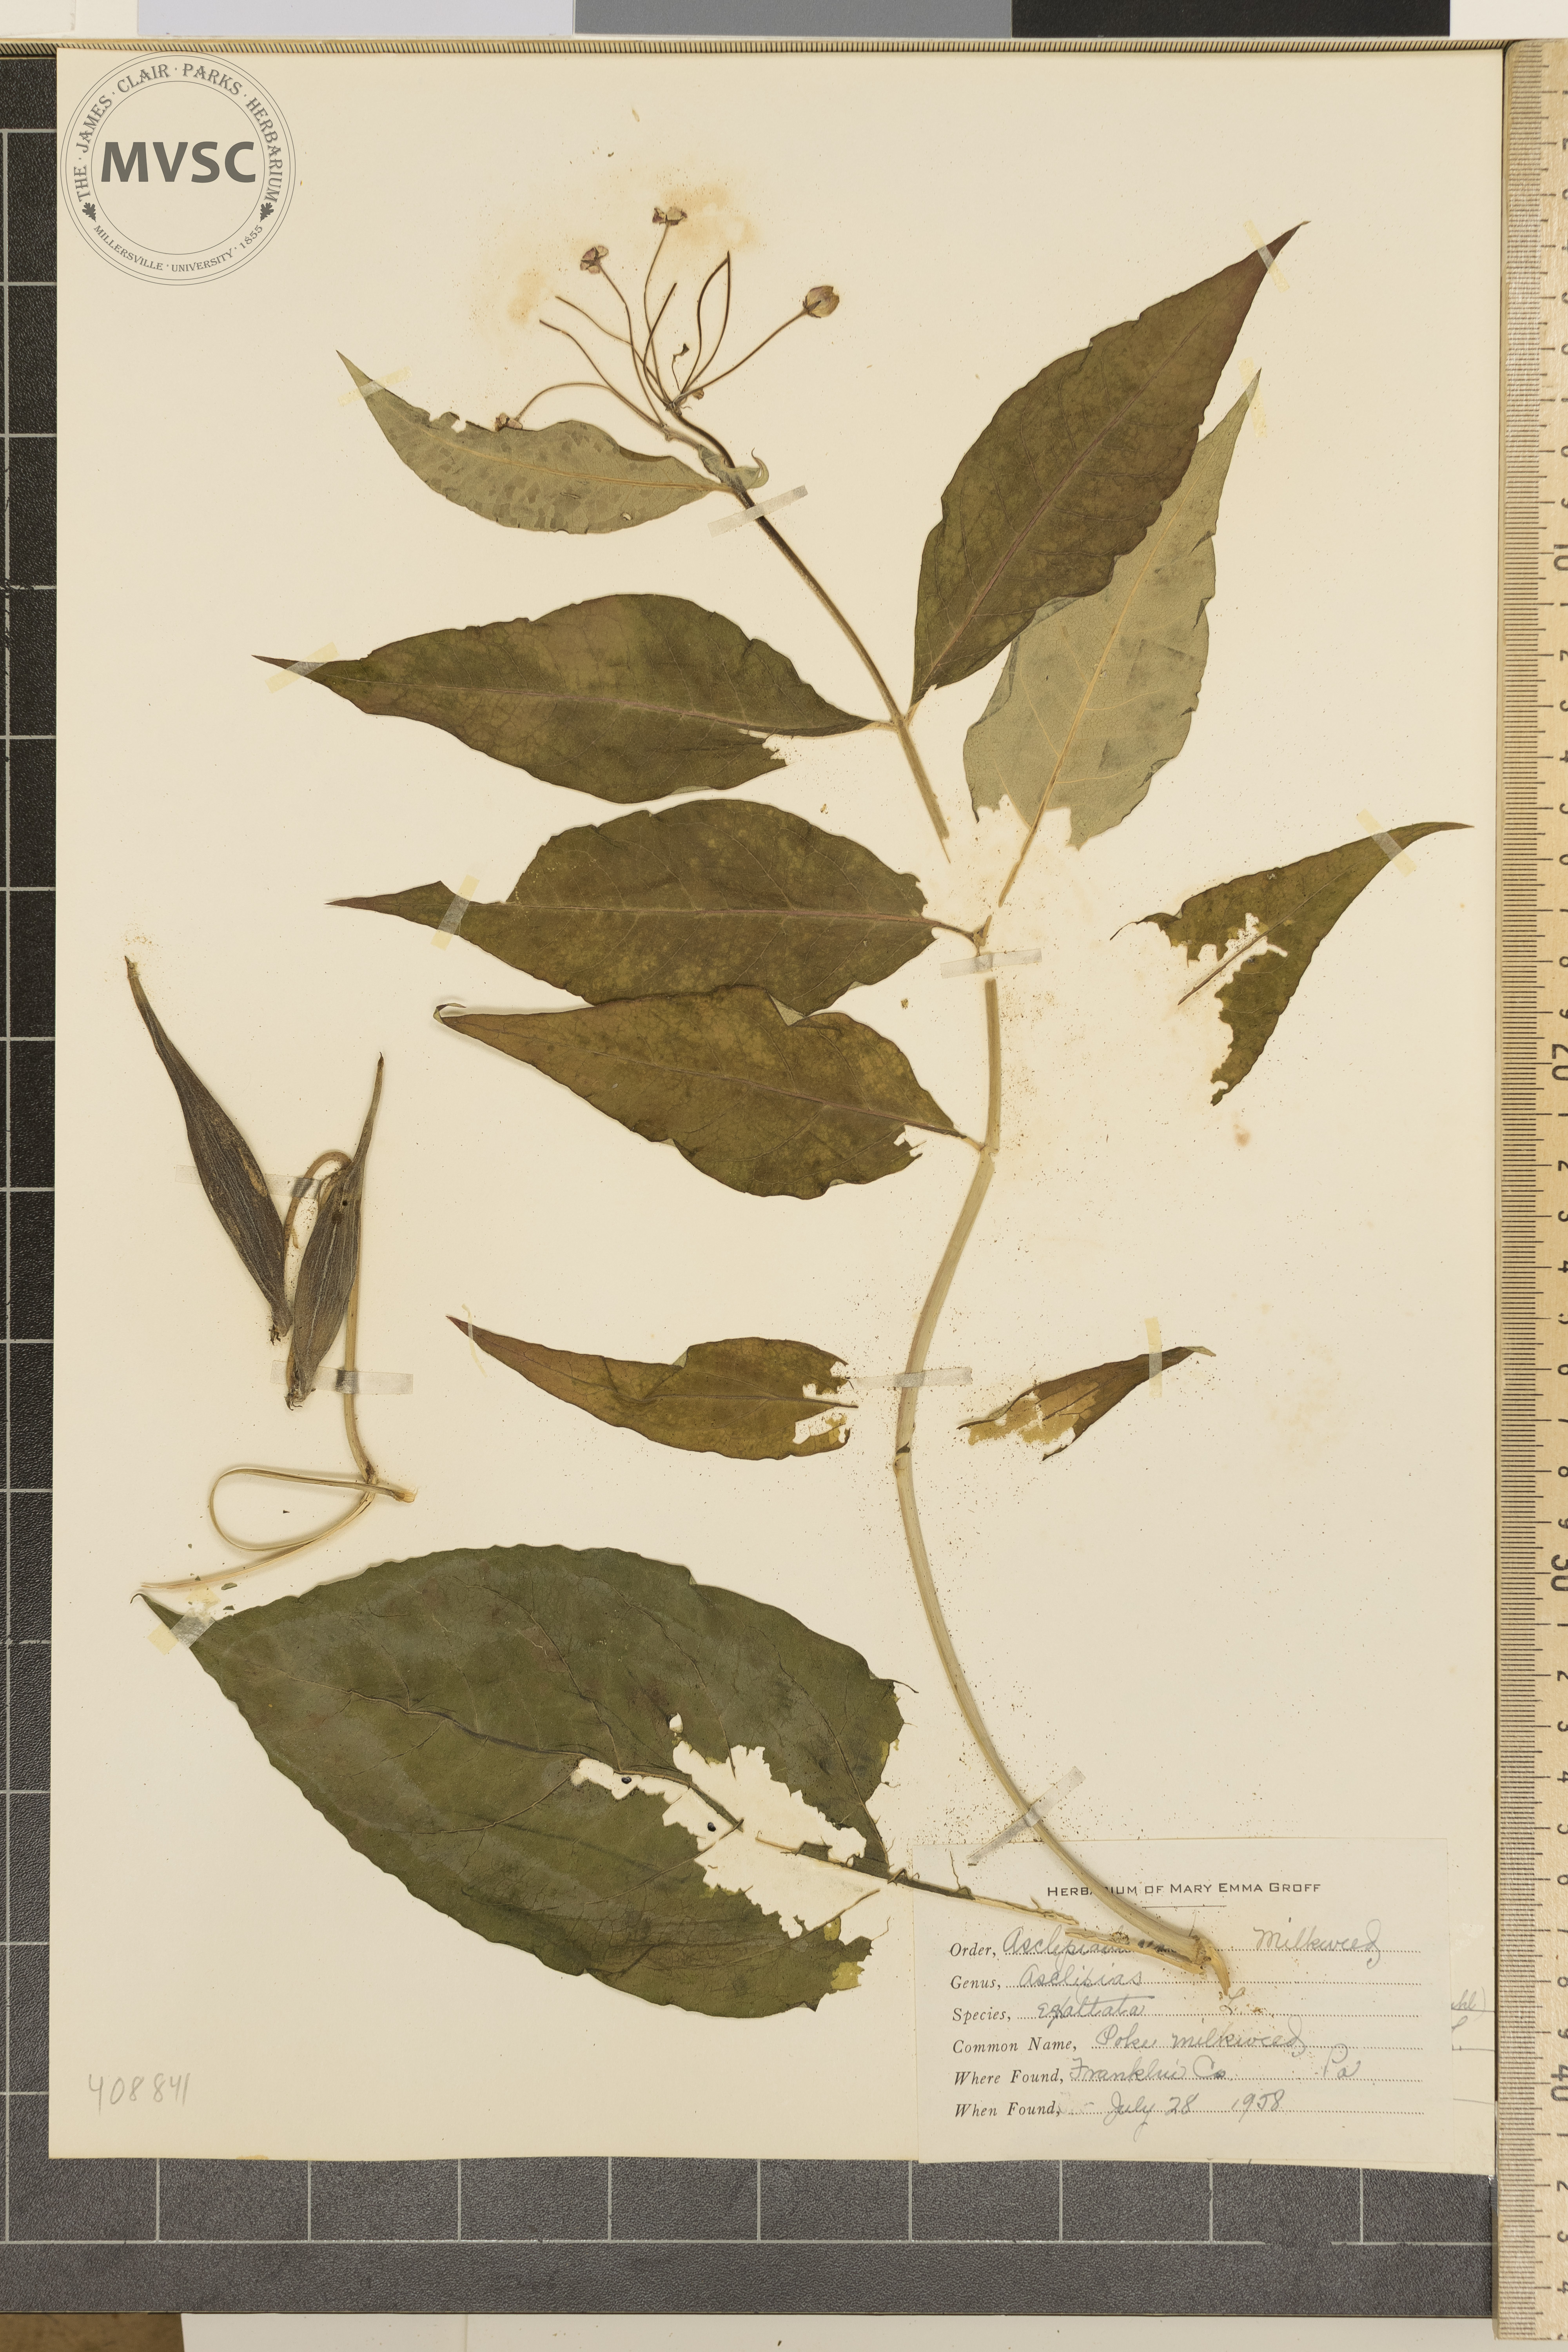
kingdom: Plantae
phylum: Tracheophyta
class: Magnoliopsida
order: Gentianales
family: Apocynaceae
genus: Asclepias
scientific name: Asclepias exaltata
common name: Poke milkweed
